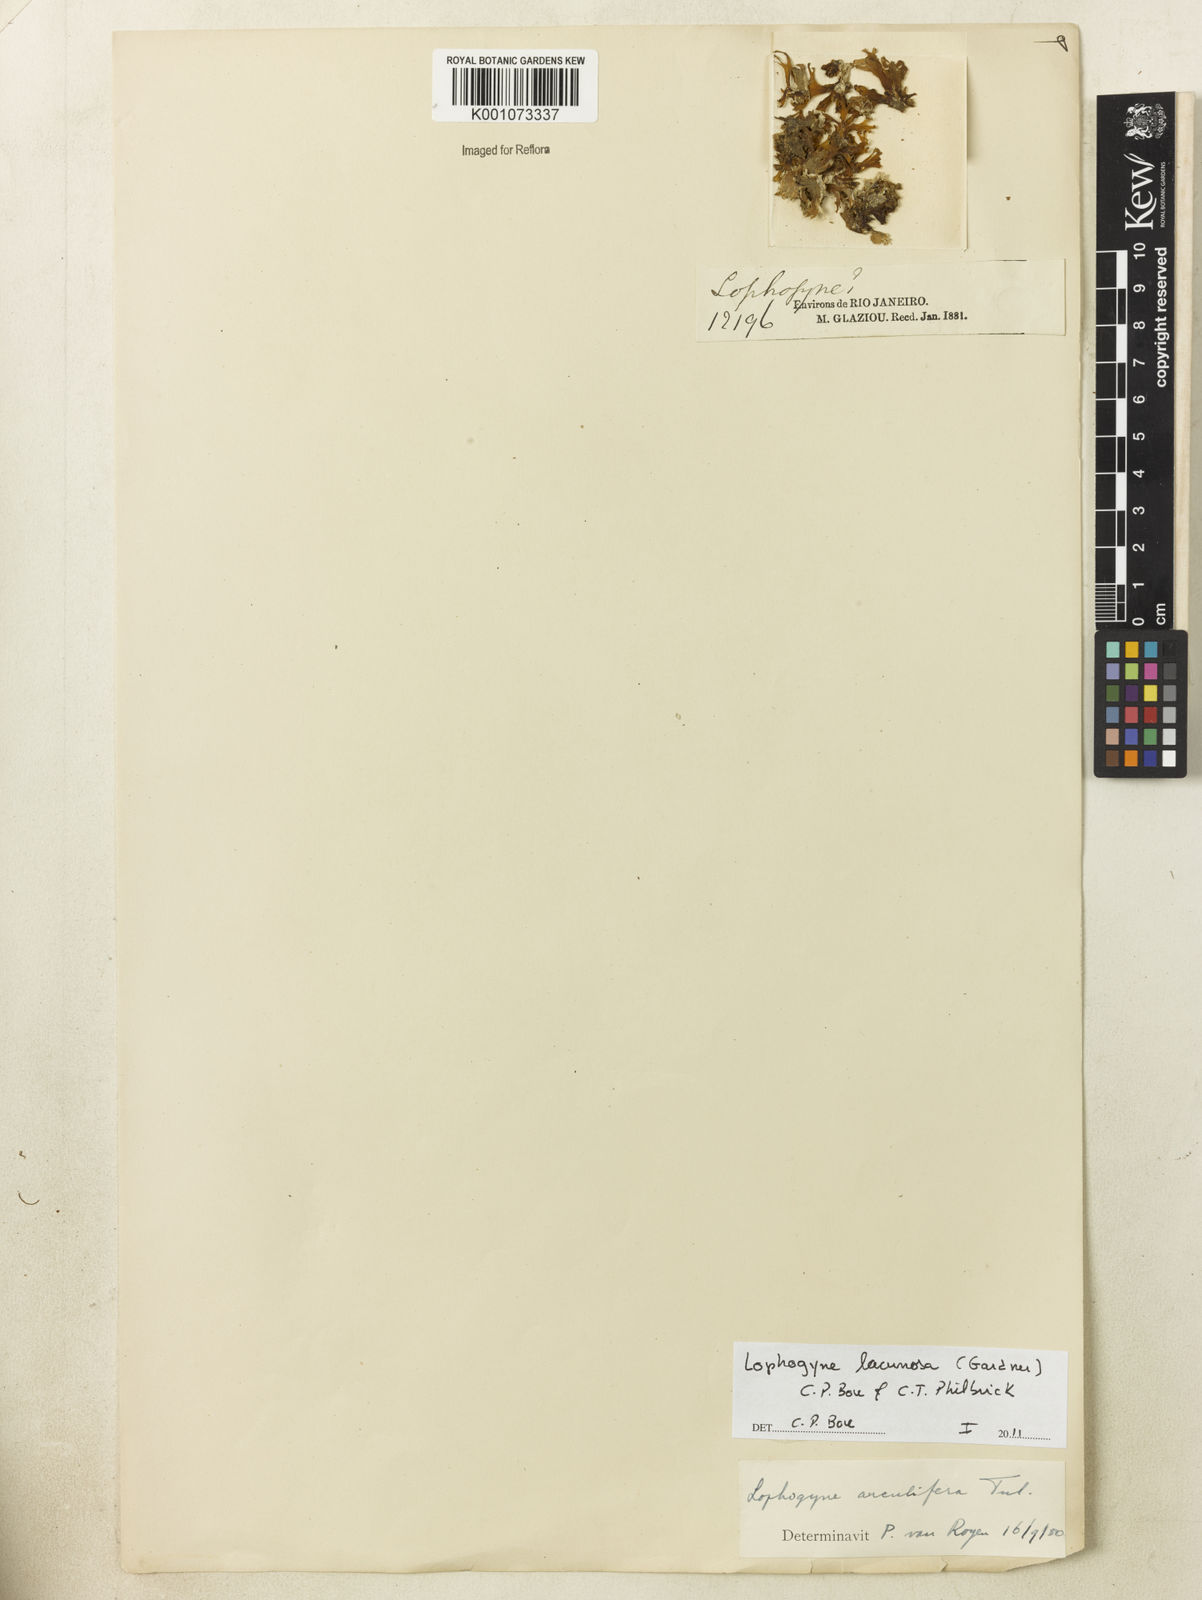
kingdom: Plantae
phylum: Tracheophyta
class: Magnoliopsida
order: Malpighiales
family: Podostemaceae
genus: Lophogyne
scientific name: Lophogyne lacunosa
